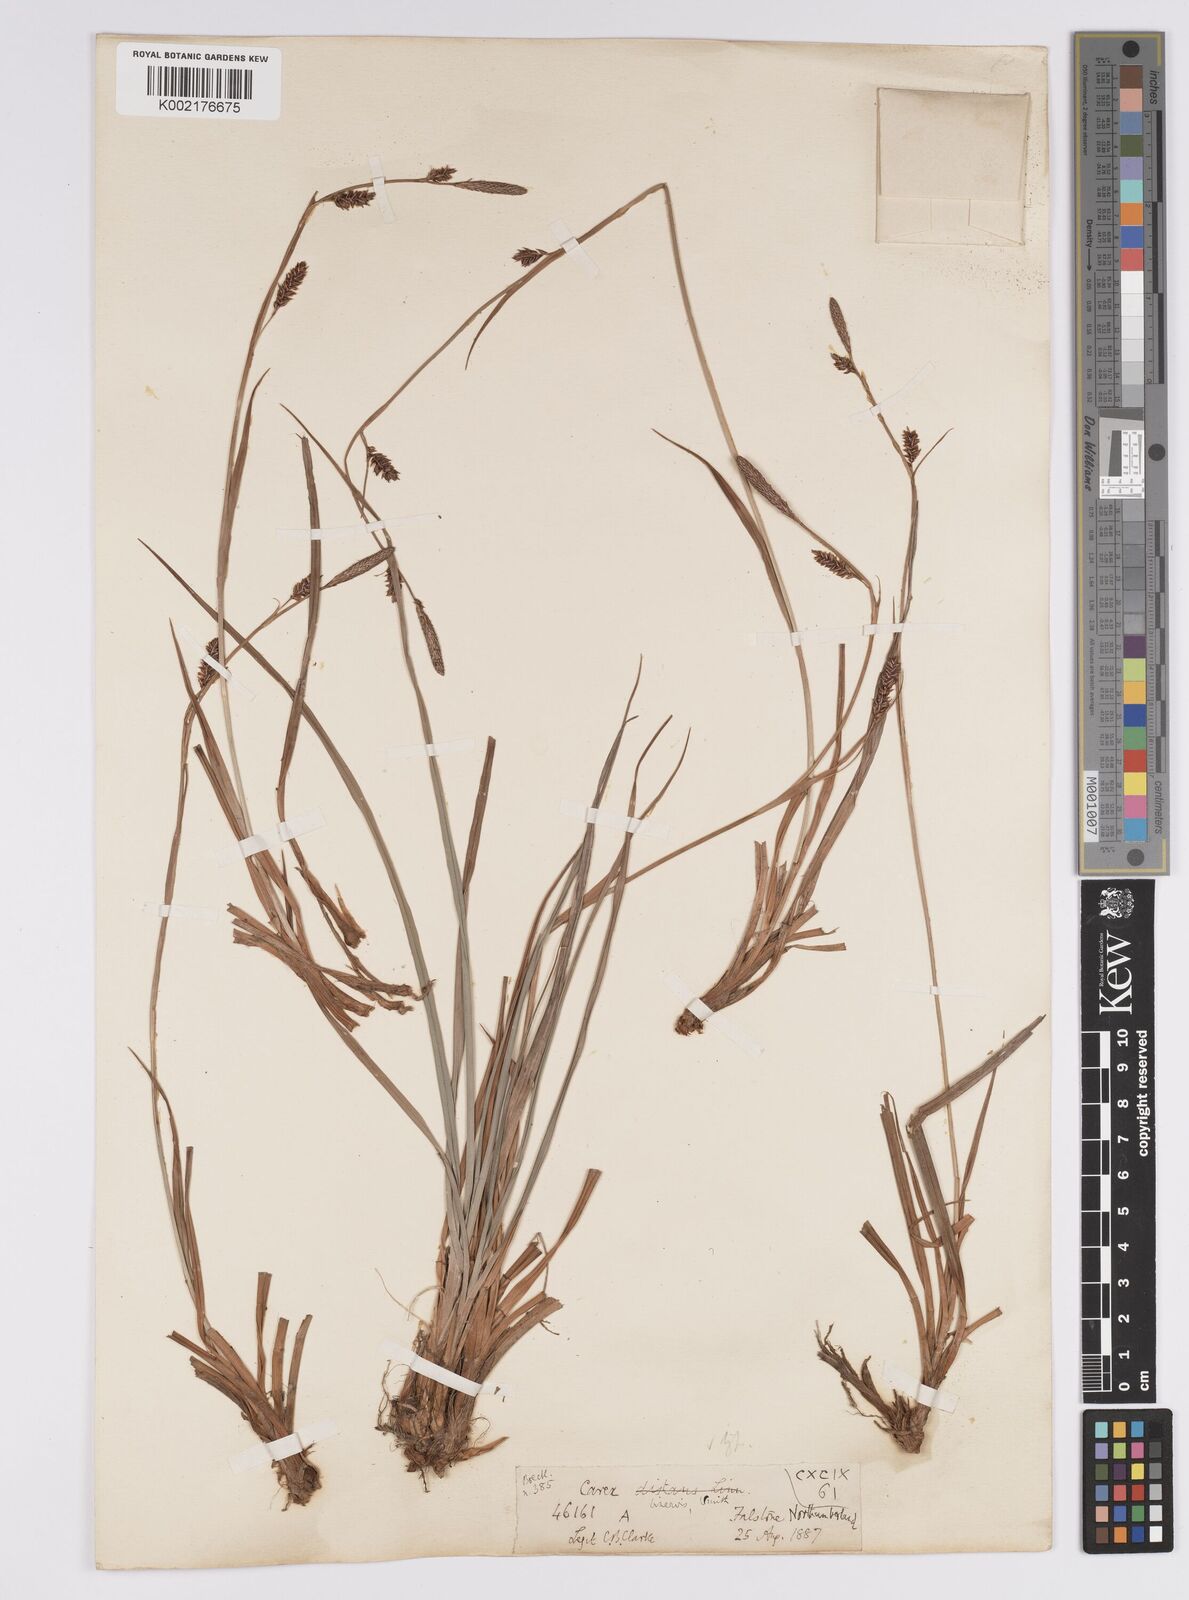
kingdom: Plantae
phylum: Tracheophyta
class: Liliopsida
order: Poales
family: Cyperaceae
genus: Carex
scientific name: Carex binervis
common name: Green-ribbed sedge
